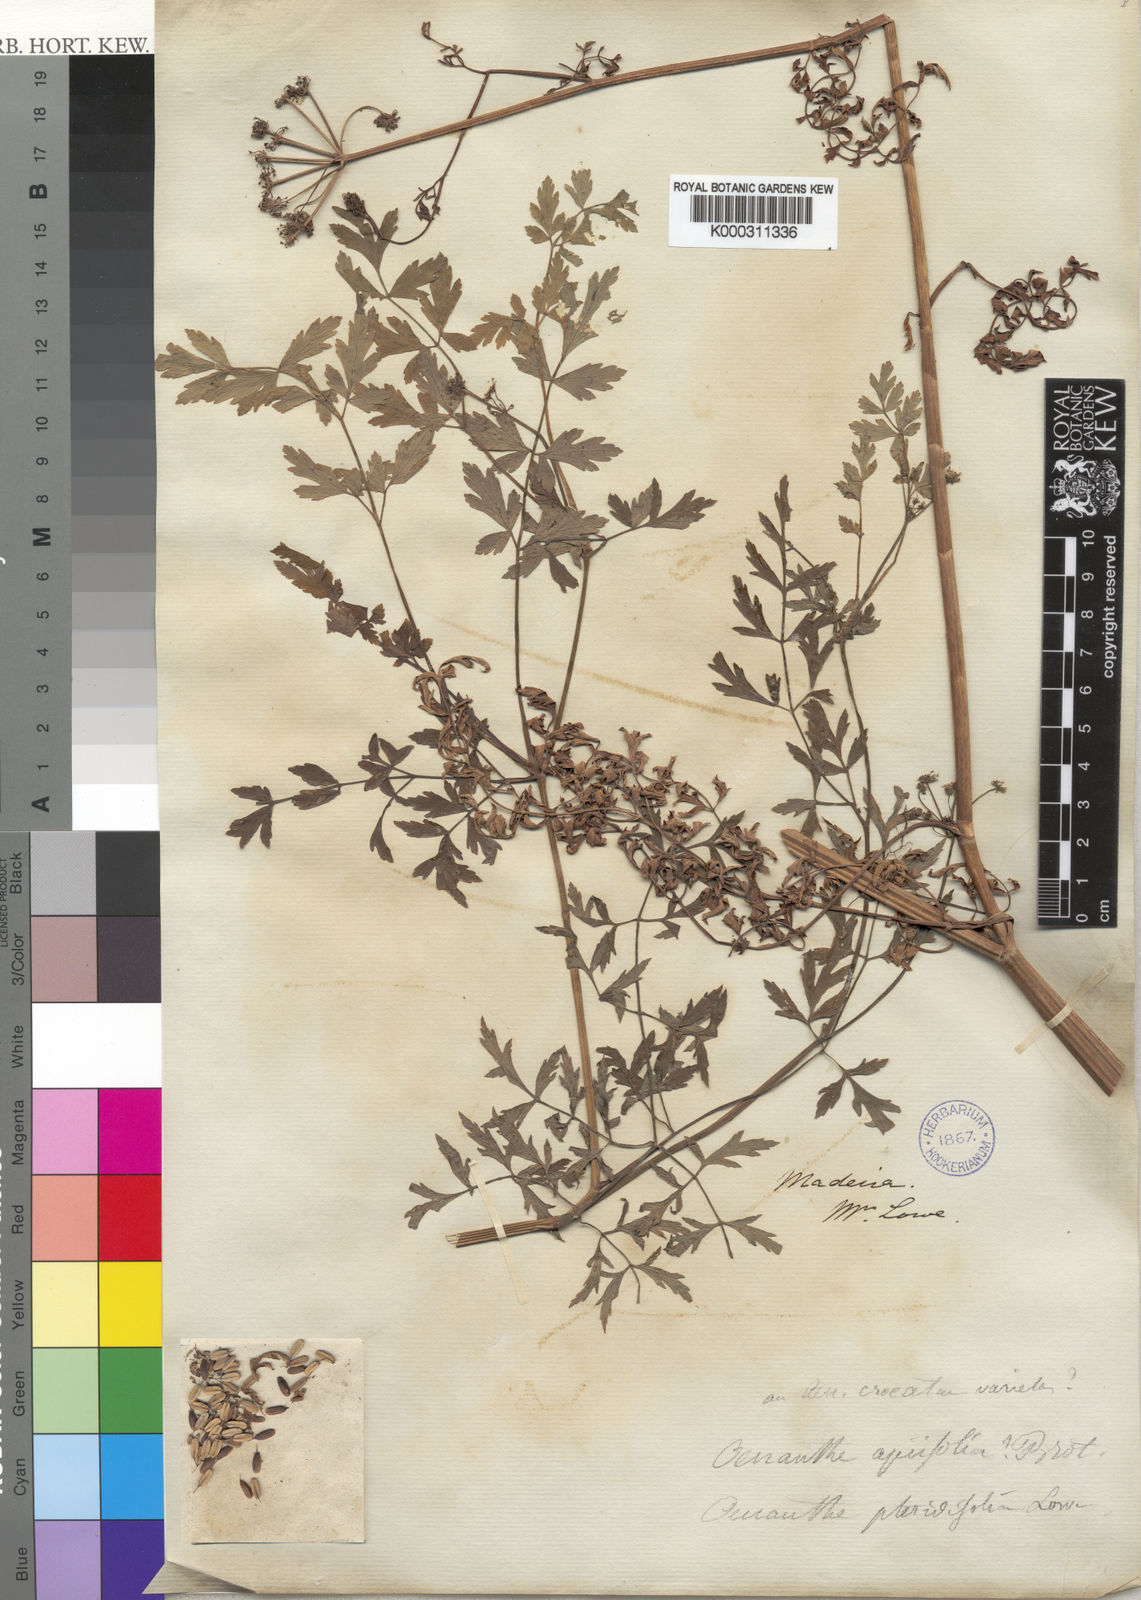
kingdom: Plantae
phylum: Tracheophyta
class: Magnoliopsida
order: Apiales
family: Apiaceae
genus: Oenanthe
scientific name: Oenanthe pteridifolia
